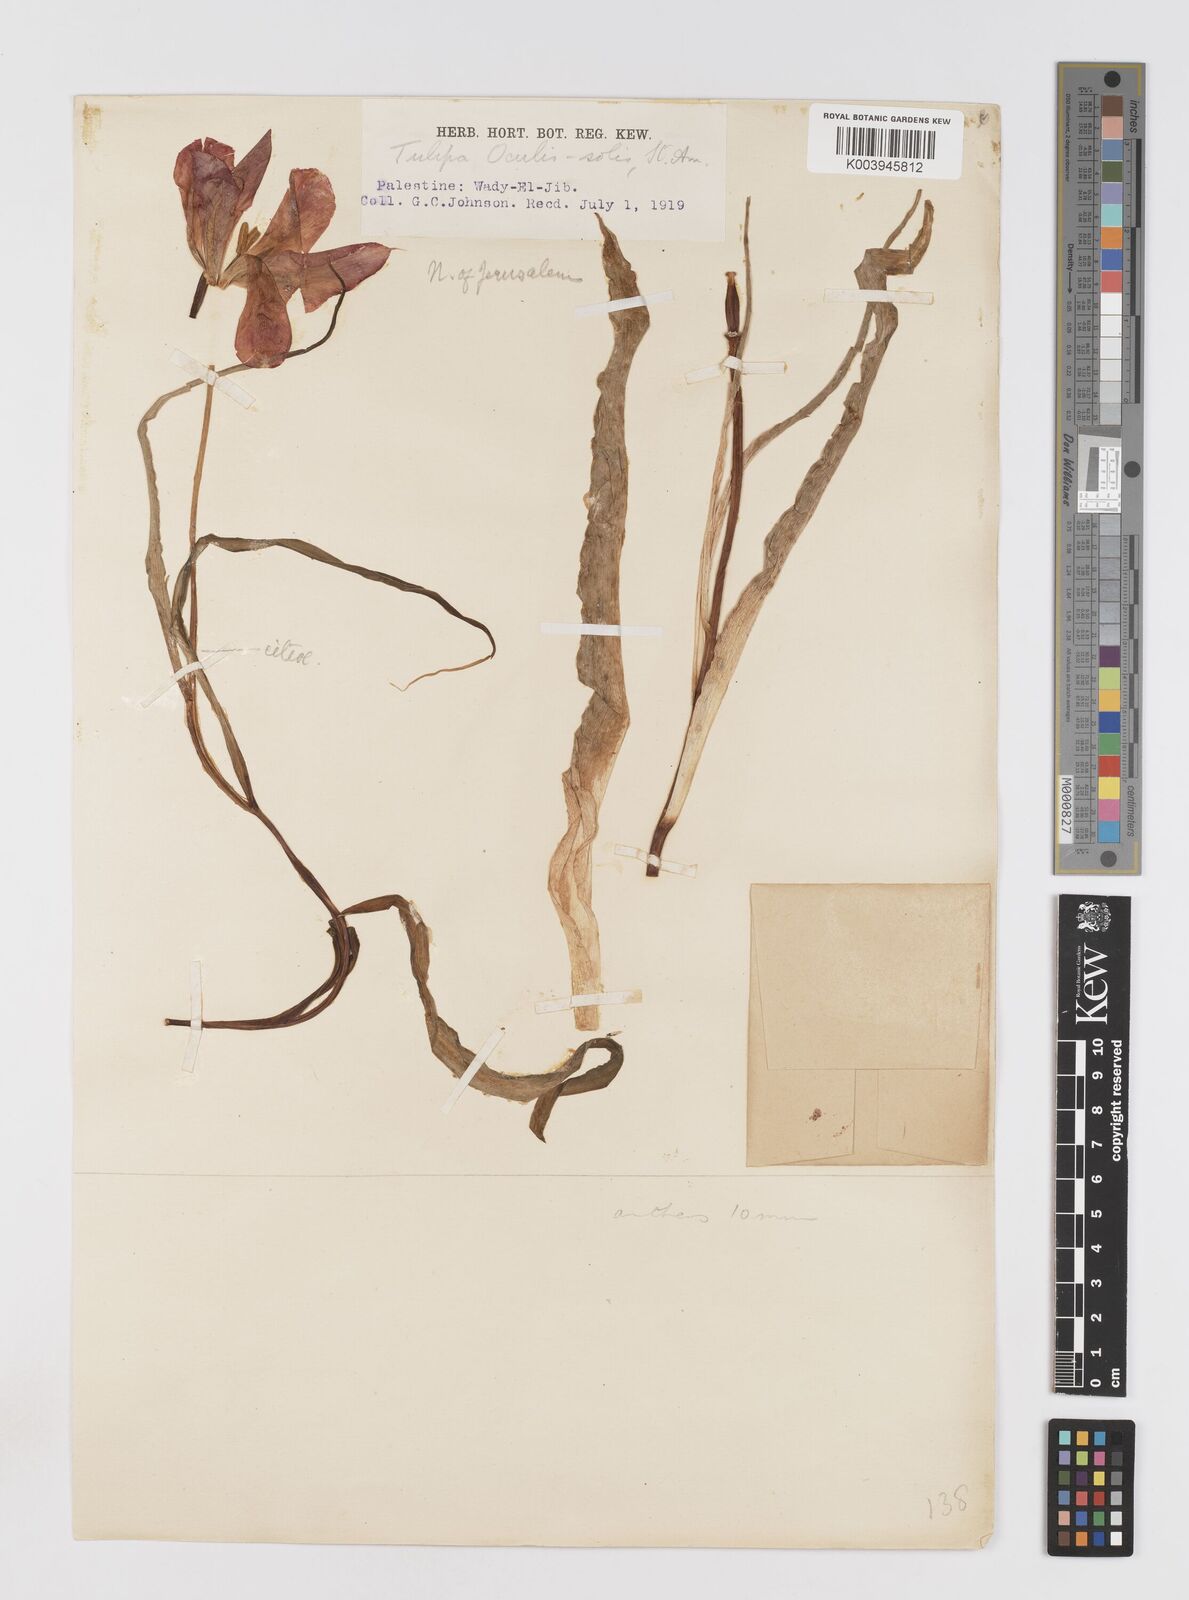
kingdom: Plantae
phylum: Tracheophyta
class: Liliopsida
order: Liliales
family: Liliaceae
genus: Tulipa
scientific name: Tulipa aleppensis
